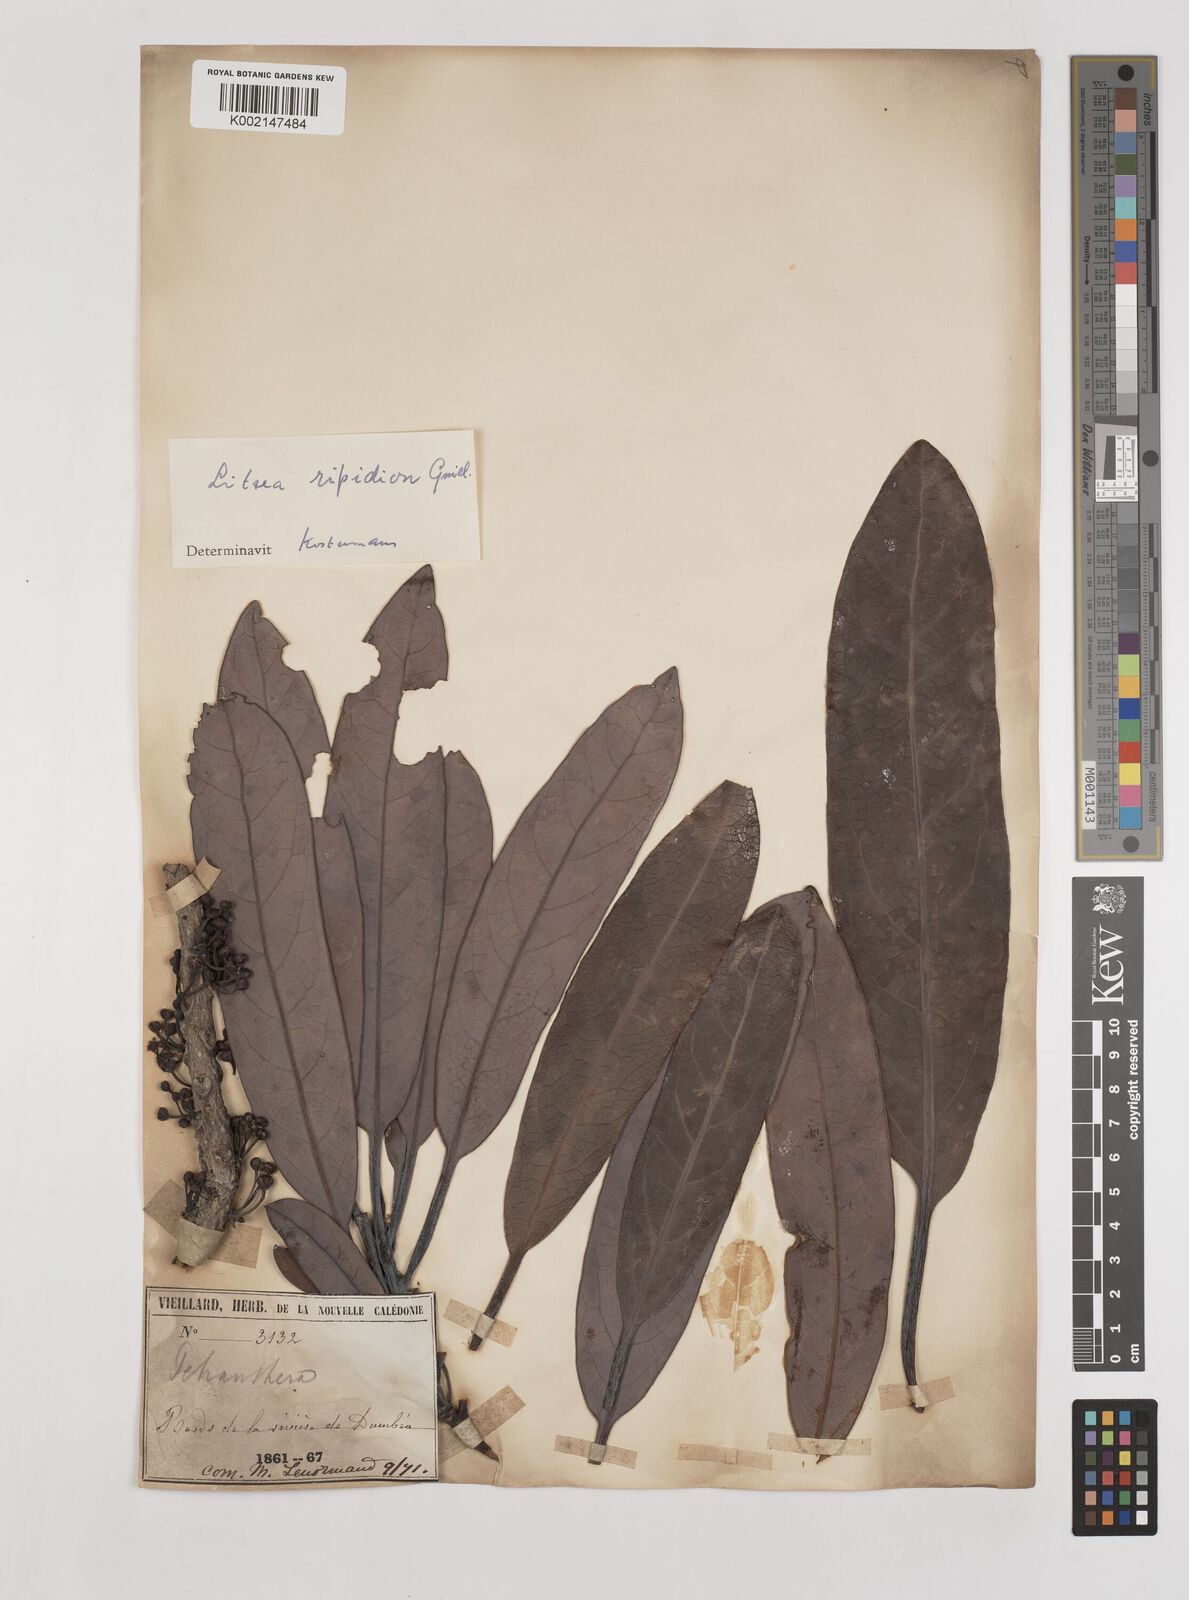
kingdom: Plantae
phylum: Tracheophyta
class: Magnoliopsida
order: Laurales
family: Lauraceae
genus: Litsea
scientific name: Litsea ripidion
